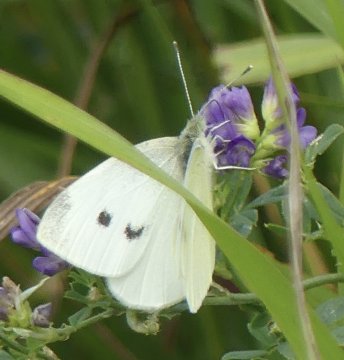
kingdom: Animalia
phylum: Arthropoda
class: Insecta
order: Lepidoptera
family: Pieridae
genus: Pieris
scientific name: Pieris rapae
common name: Cabbage White
